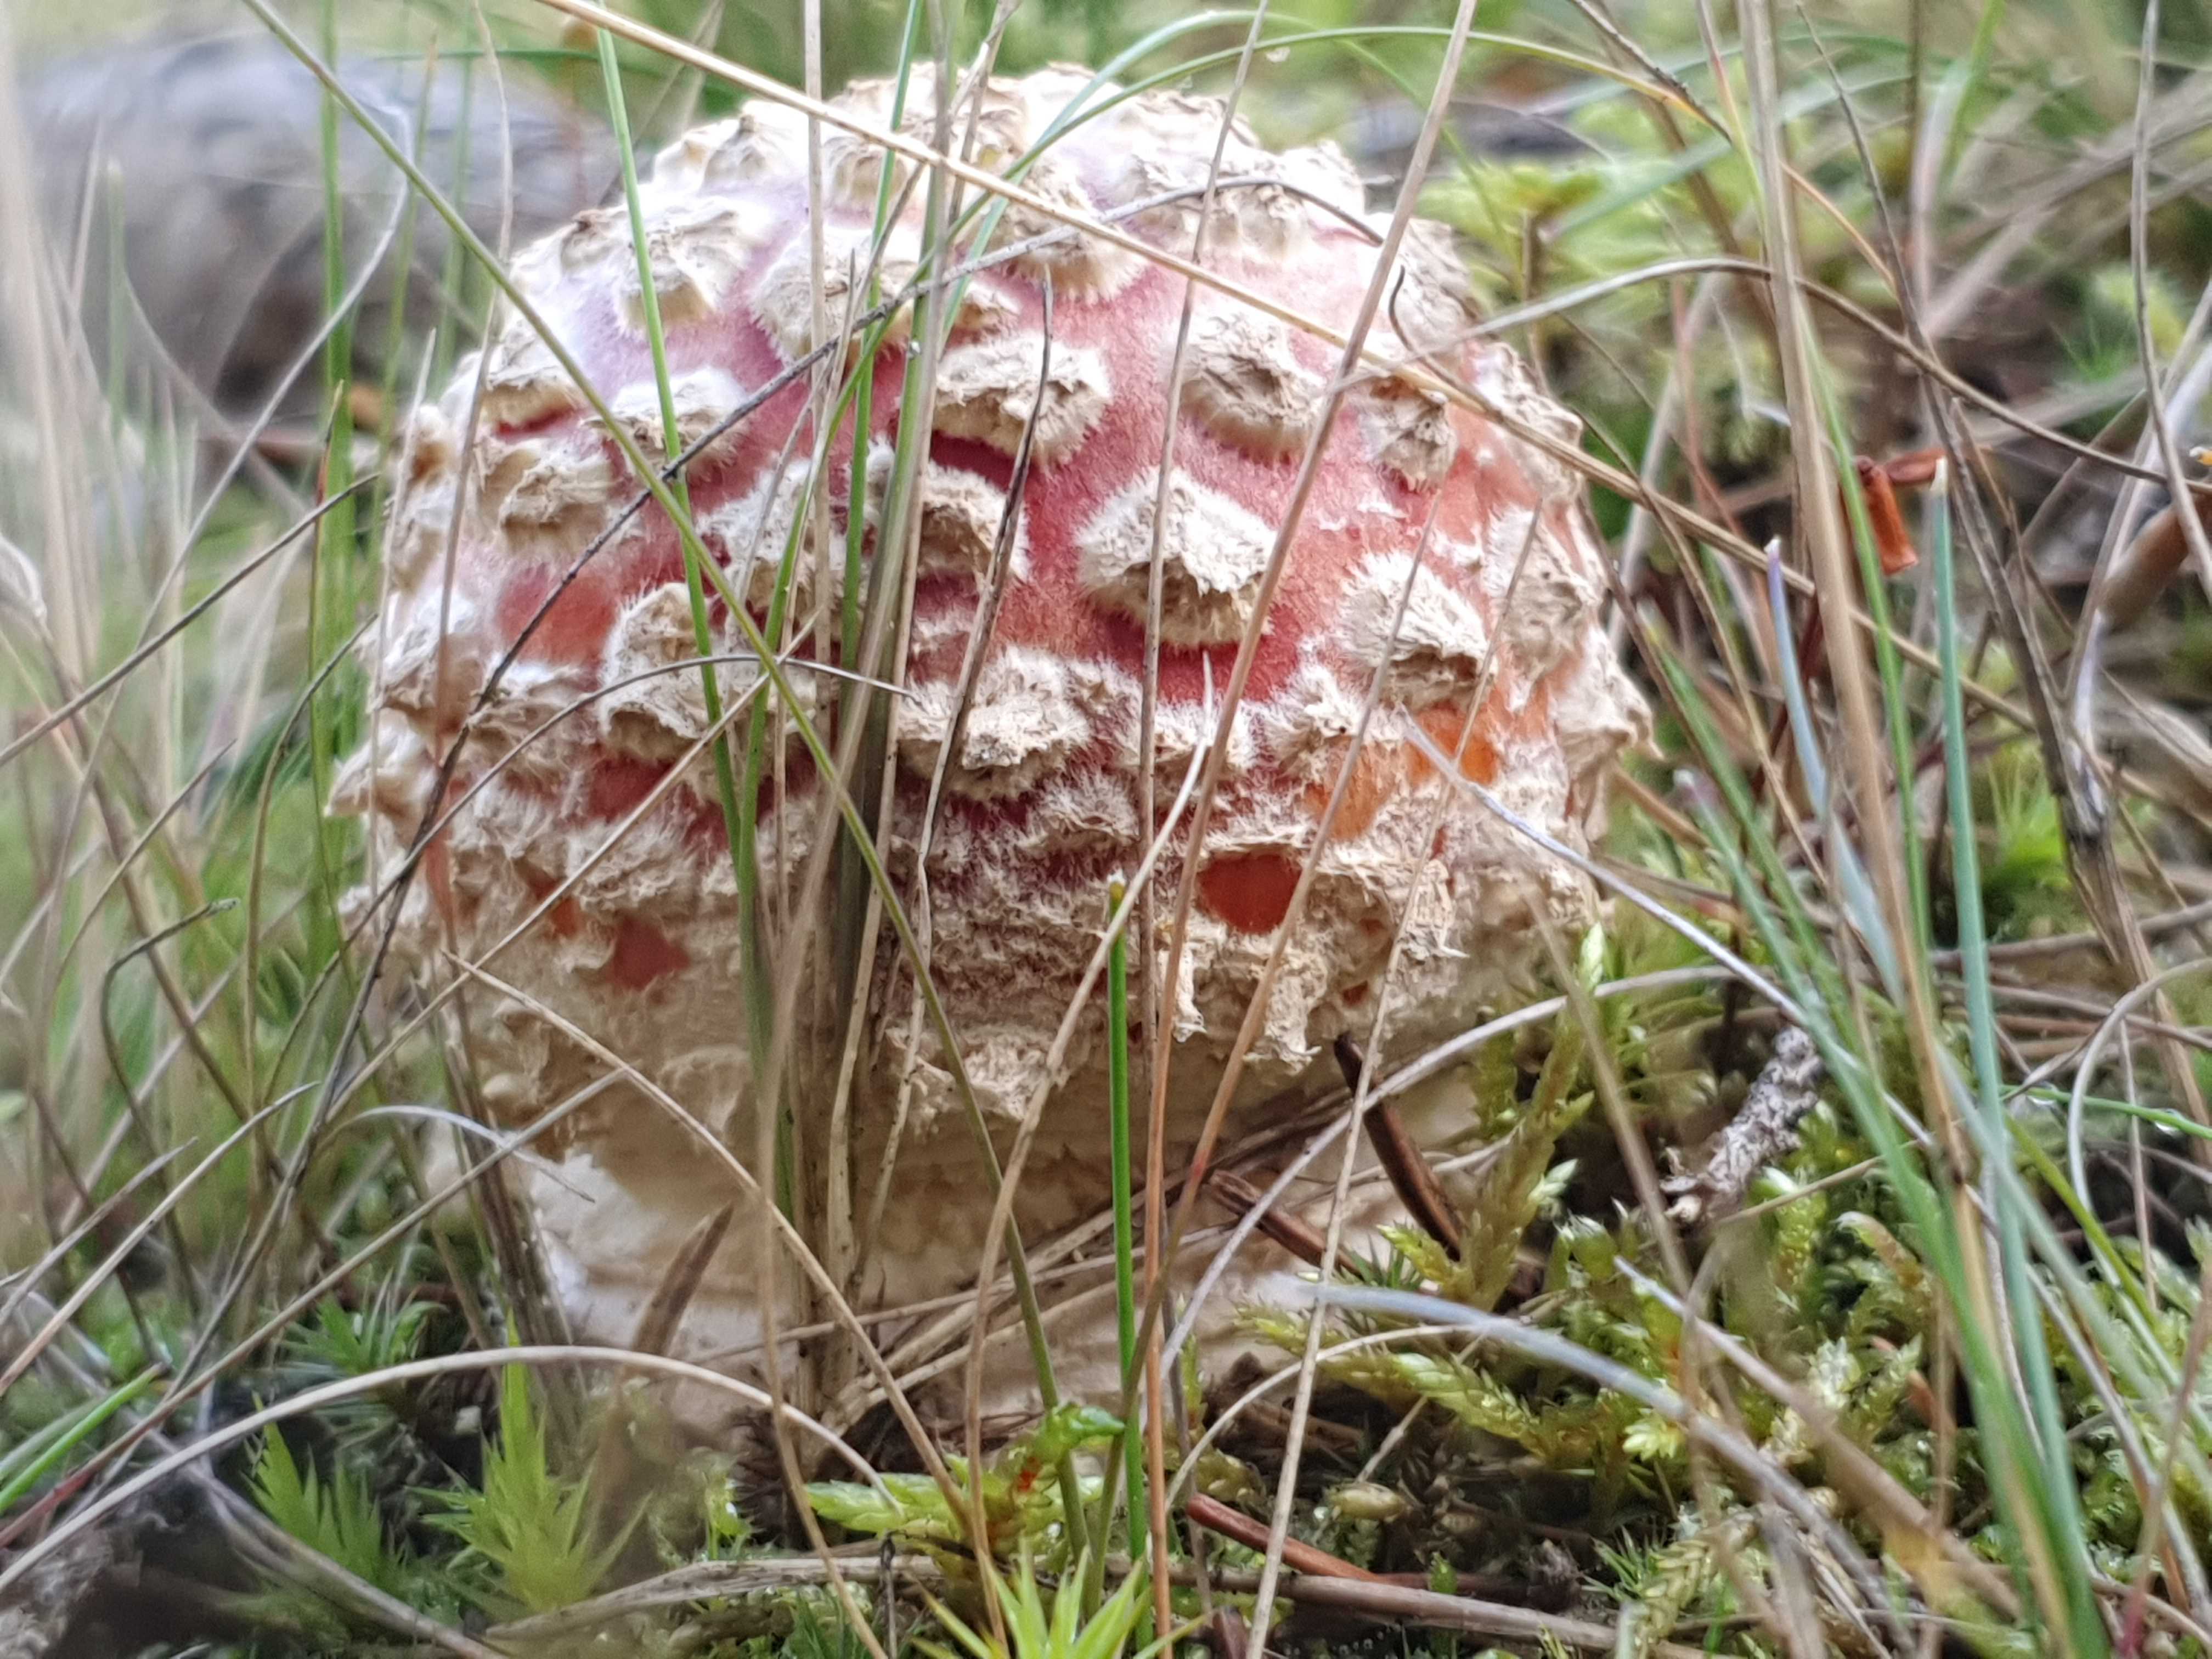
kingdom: Fungi
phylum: Basidiomycota
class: Agaricomycetes
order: Agaricales
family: Amanitaceae
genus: Amanita
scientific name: Amanita muscaria
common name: rød fluesvamp
